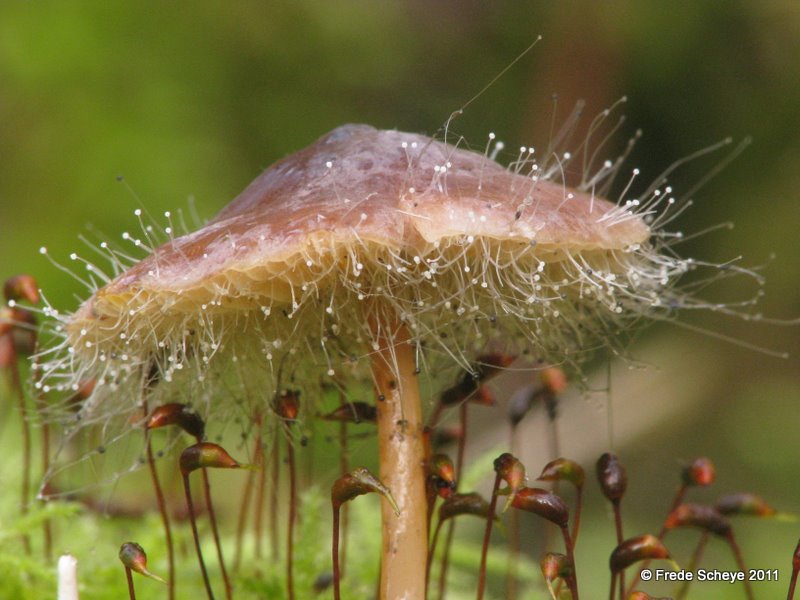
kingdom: Fungi
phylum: Mucoromycota
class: Mucoromycetes
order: Mucorales
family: Phycomycetaceae
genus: Spinellus
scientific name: Spinellus fusiger
